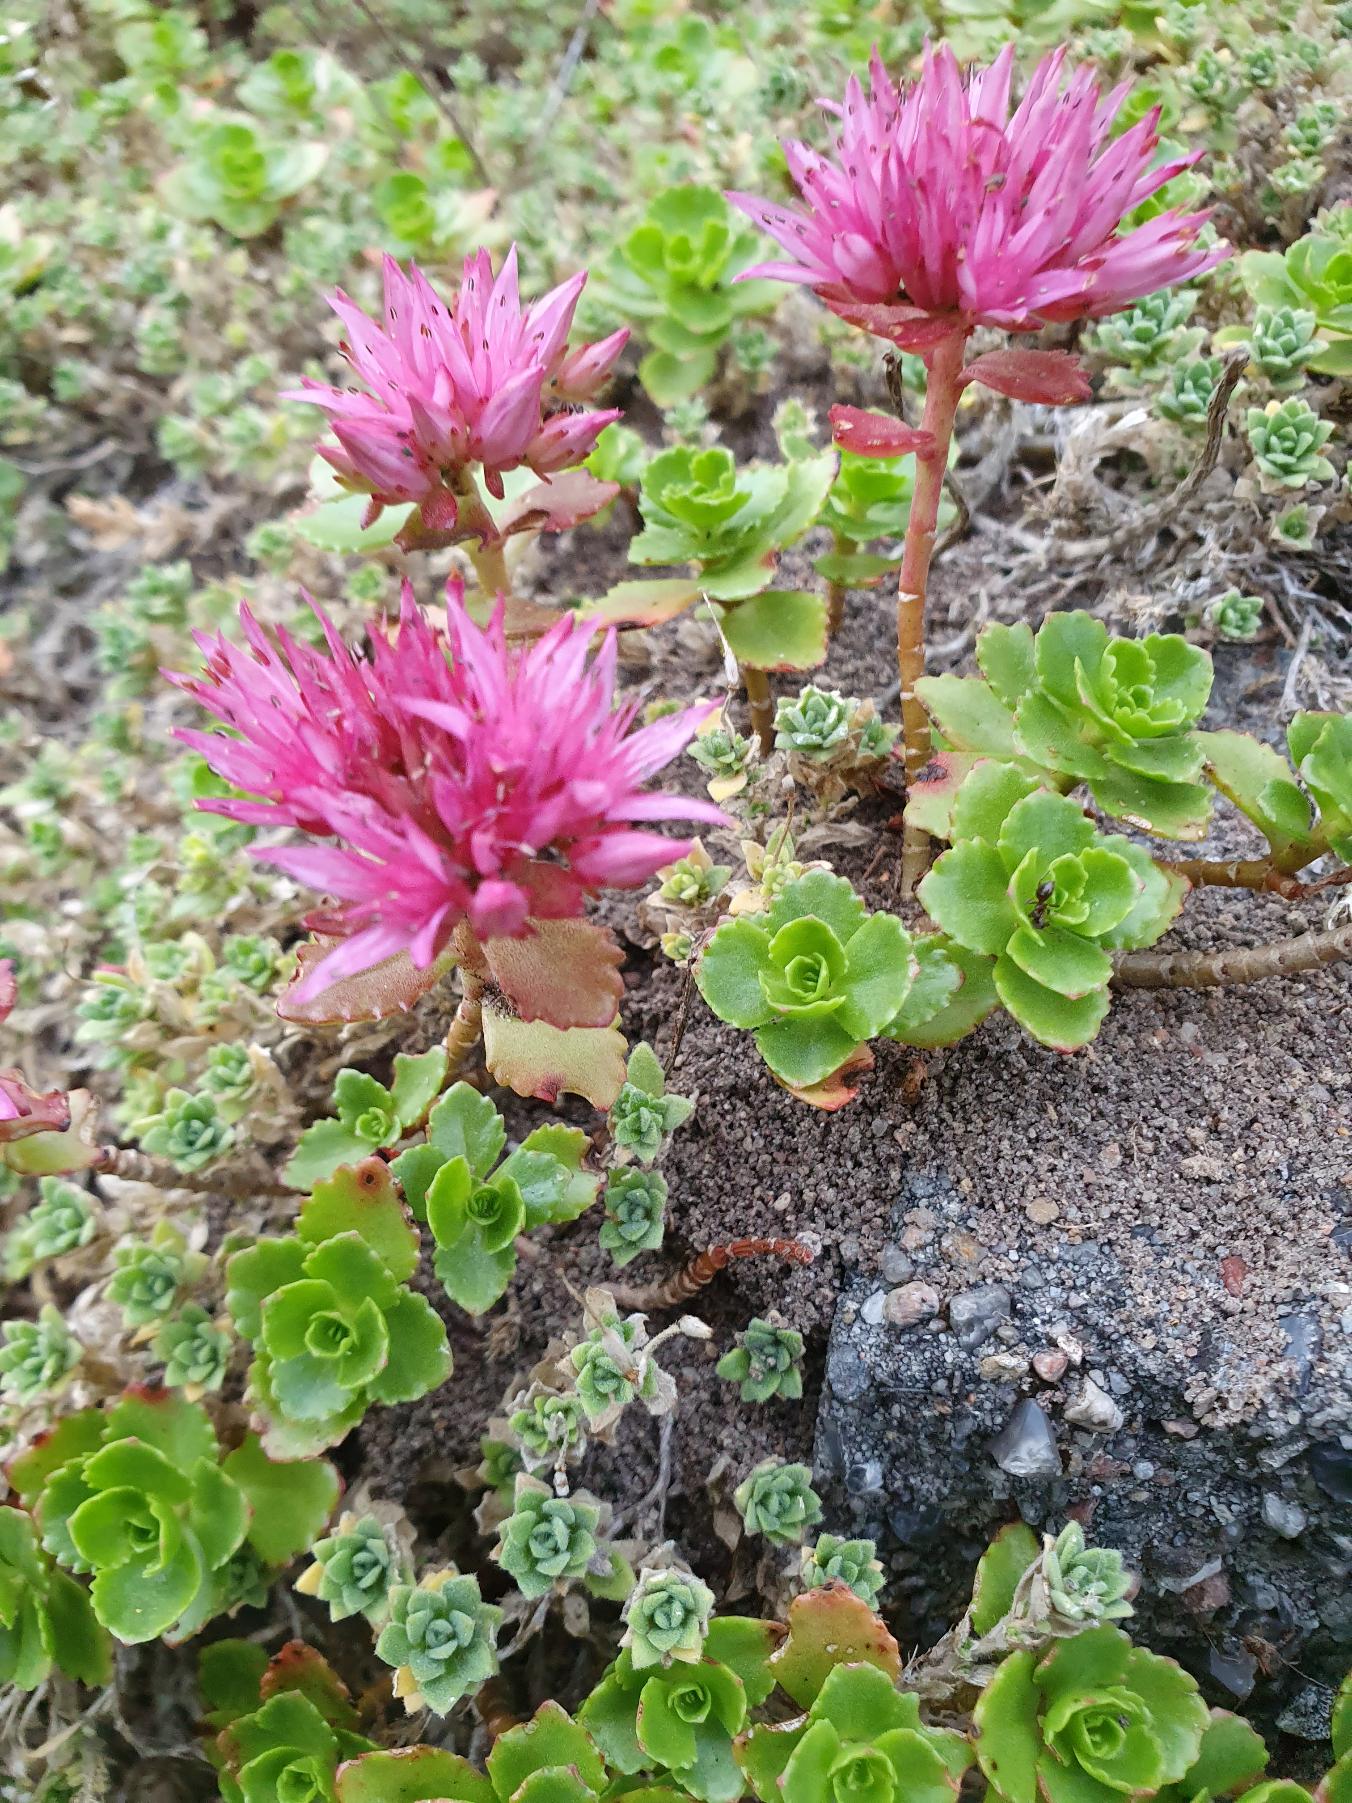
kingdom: Plantae
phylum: Tracheophyta
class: Magnoliopsida
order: Saxifragales
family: Crassulaceae
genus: Phedimus
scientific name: Phedimus spurius
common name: Rød stenurt
